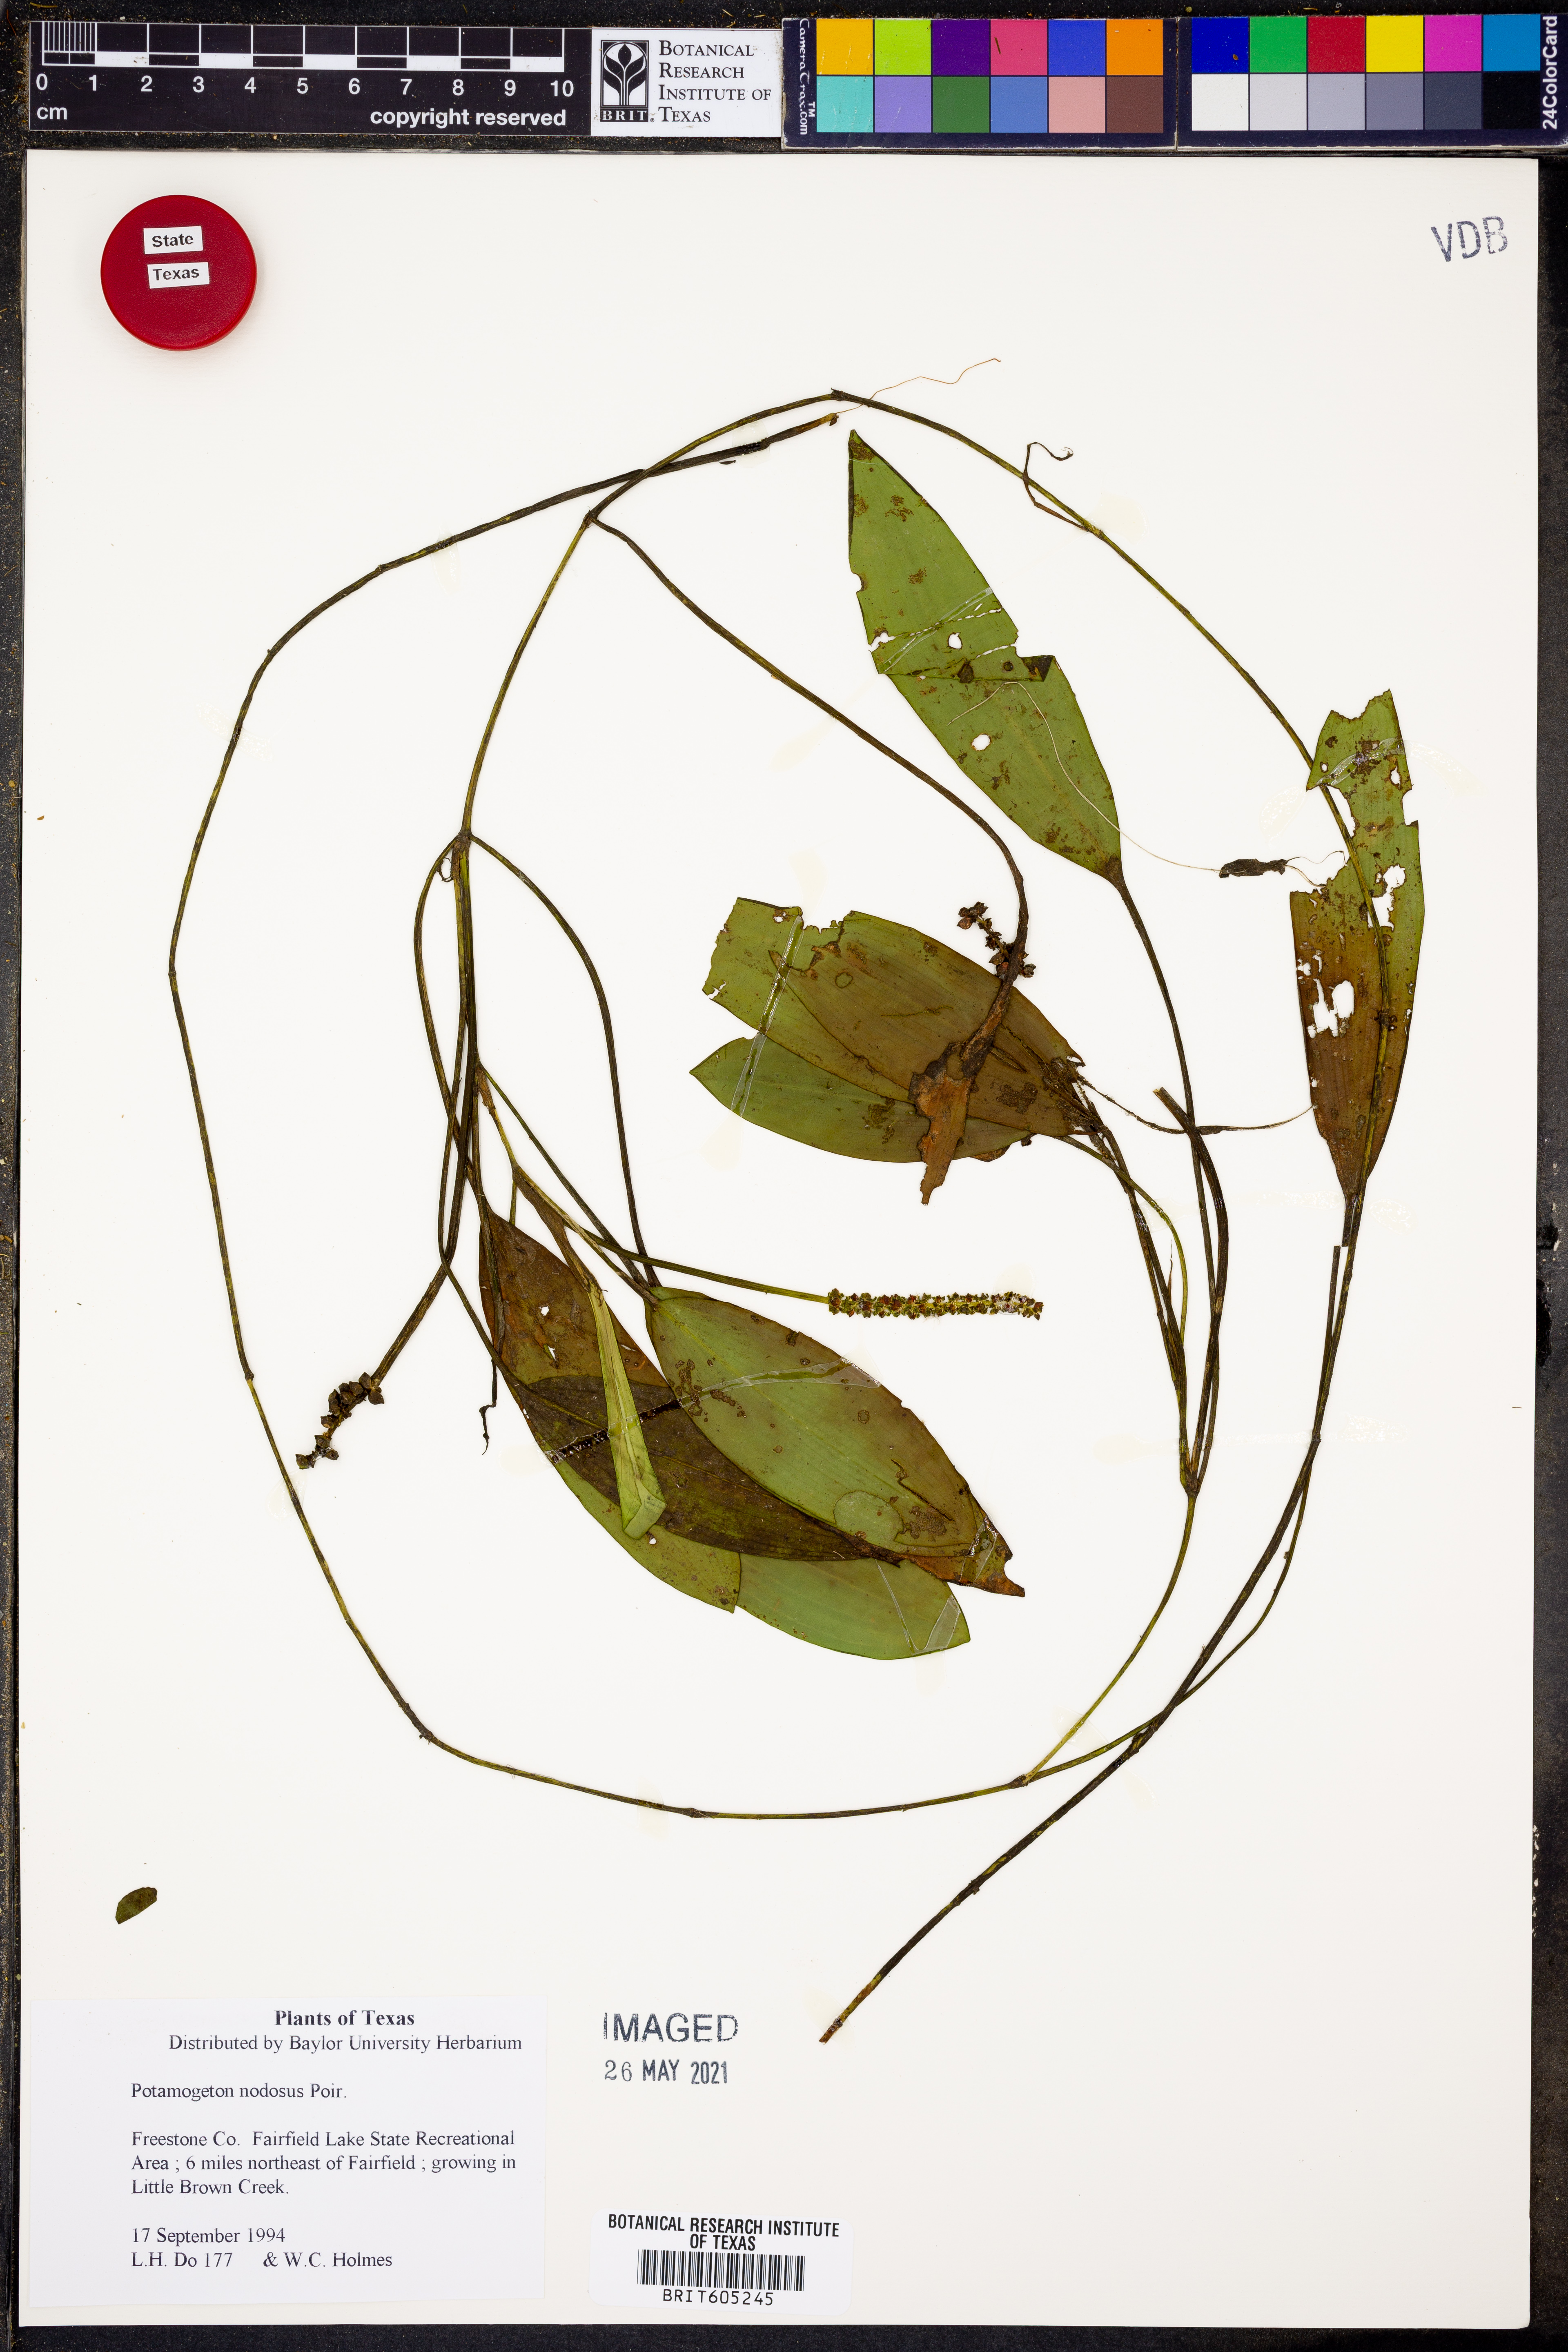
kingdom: Plantae
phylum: Tracheophyta
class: Liliopsida
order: Alismatales
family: Potamogetonaceae
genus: Potamogeton
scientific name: Potamogeton nodosus
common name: Loddon pondweed
